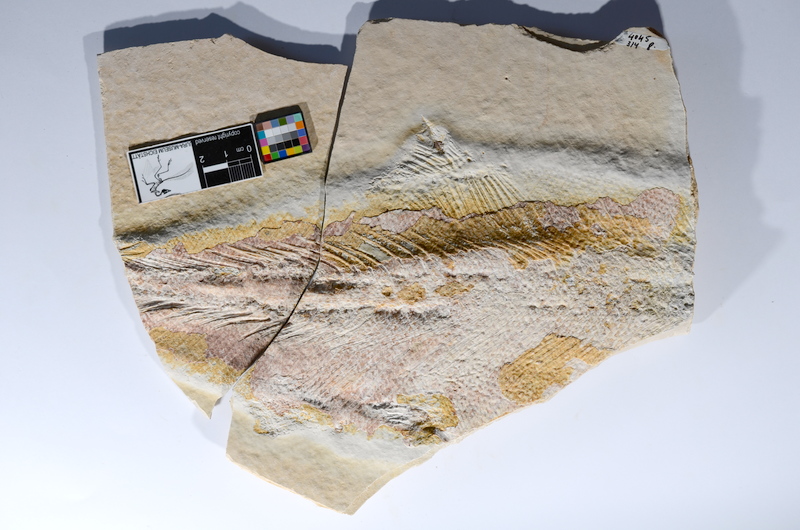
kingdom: Animalia
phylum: Chordata
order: Amiiformes
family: Caturidae
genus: Caturus
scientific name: Caturus
